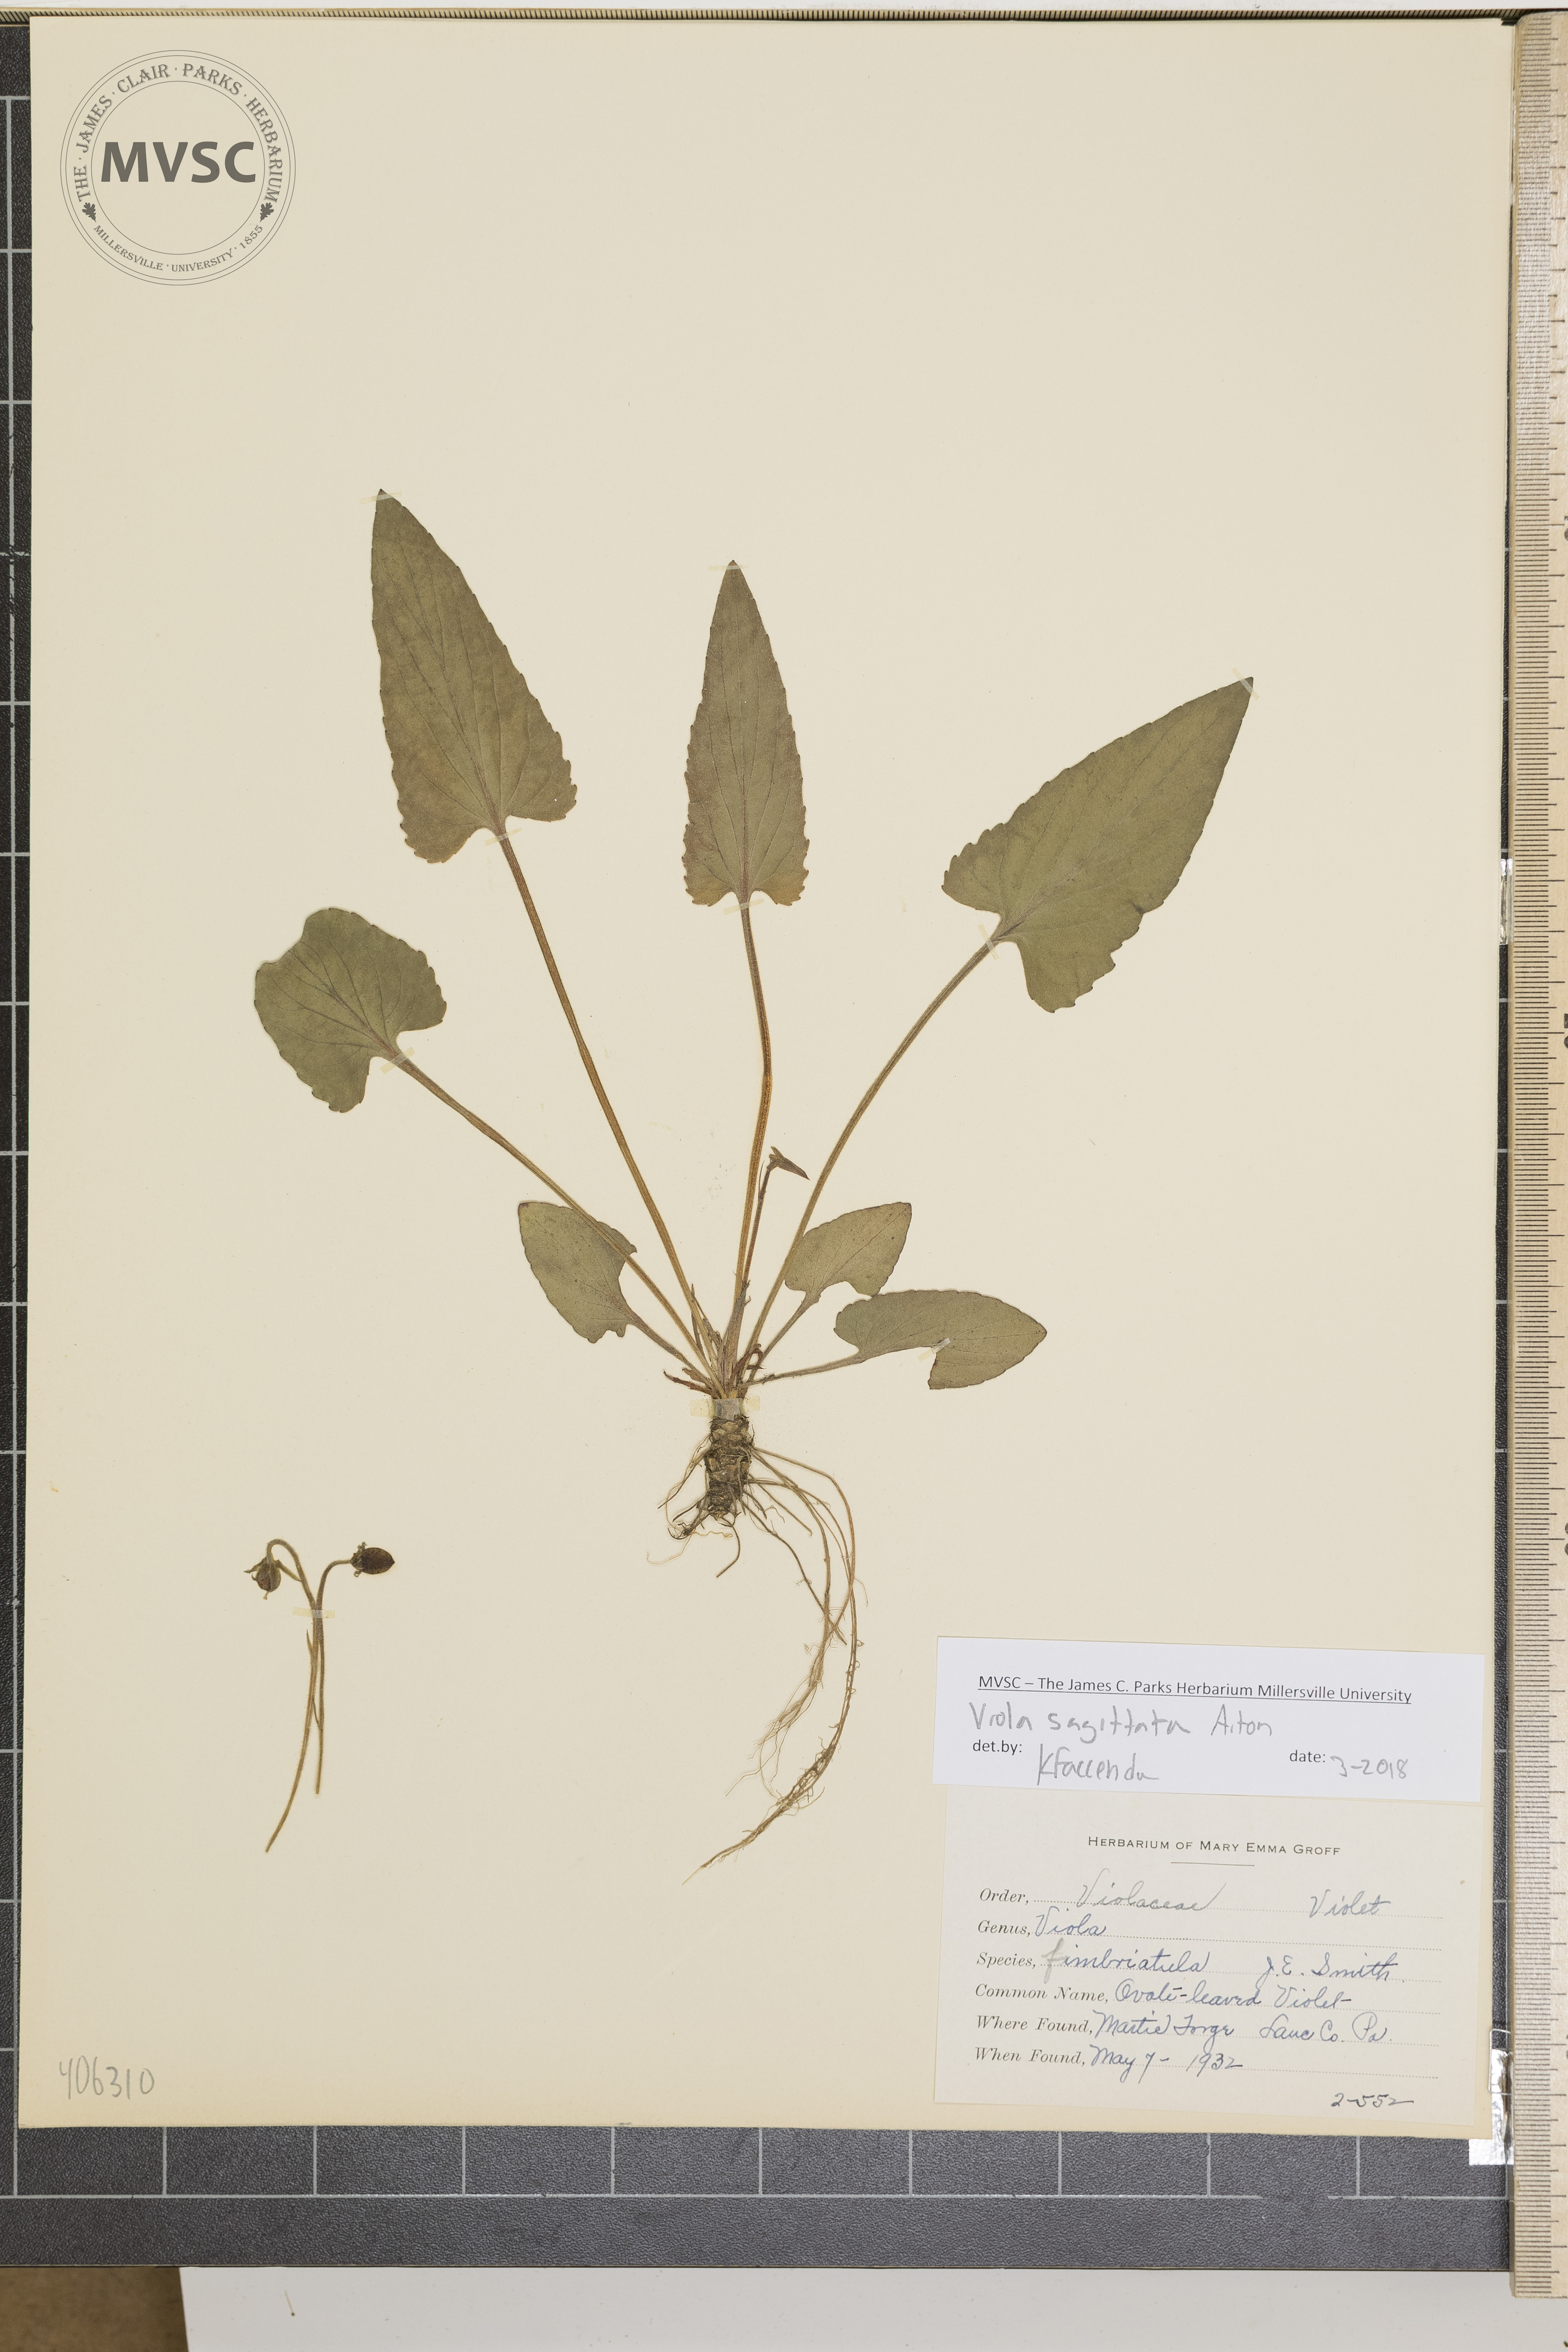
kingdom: Plantae
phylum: Tracheophyta
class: Magnoliopsida
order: Malpighiales
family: Violaceae
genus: Viola
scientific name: Viola sagittata
